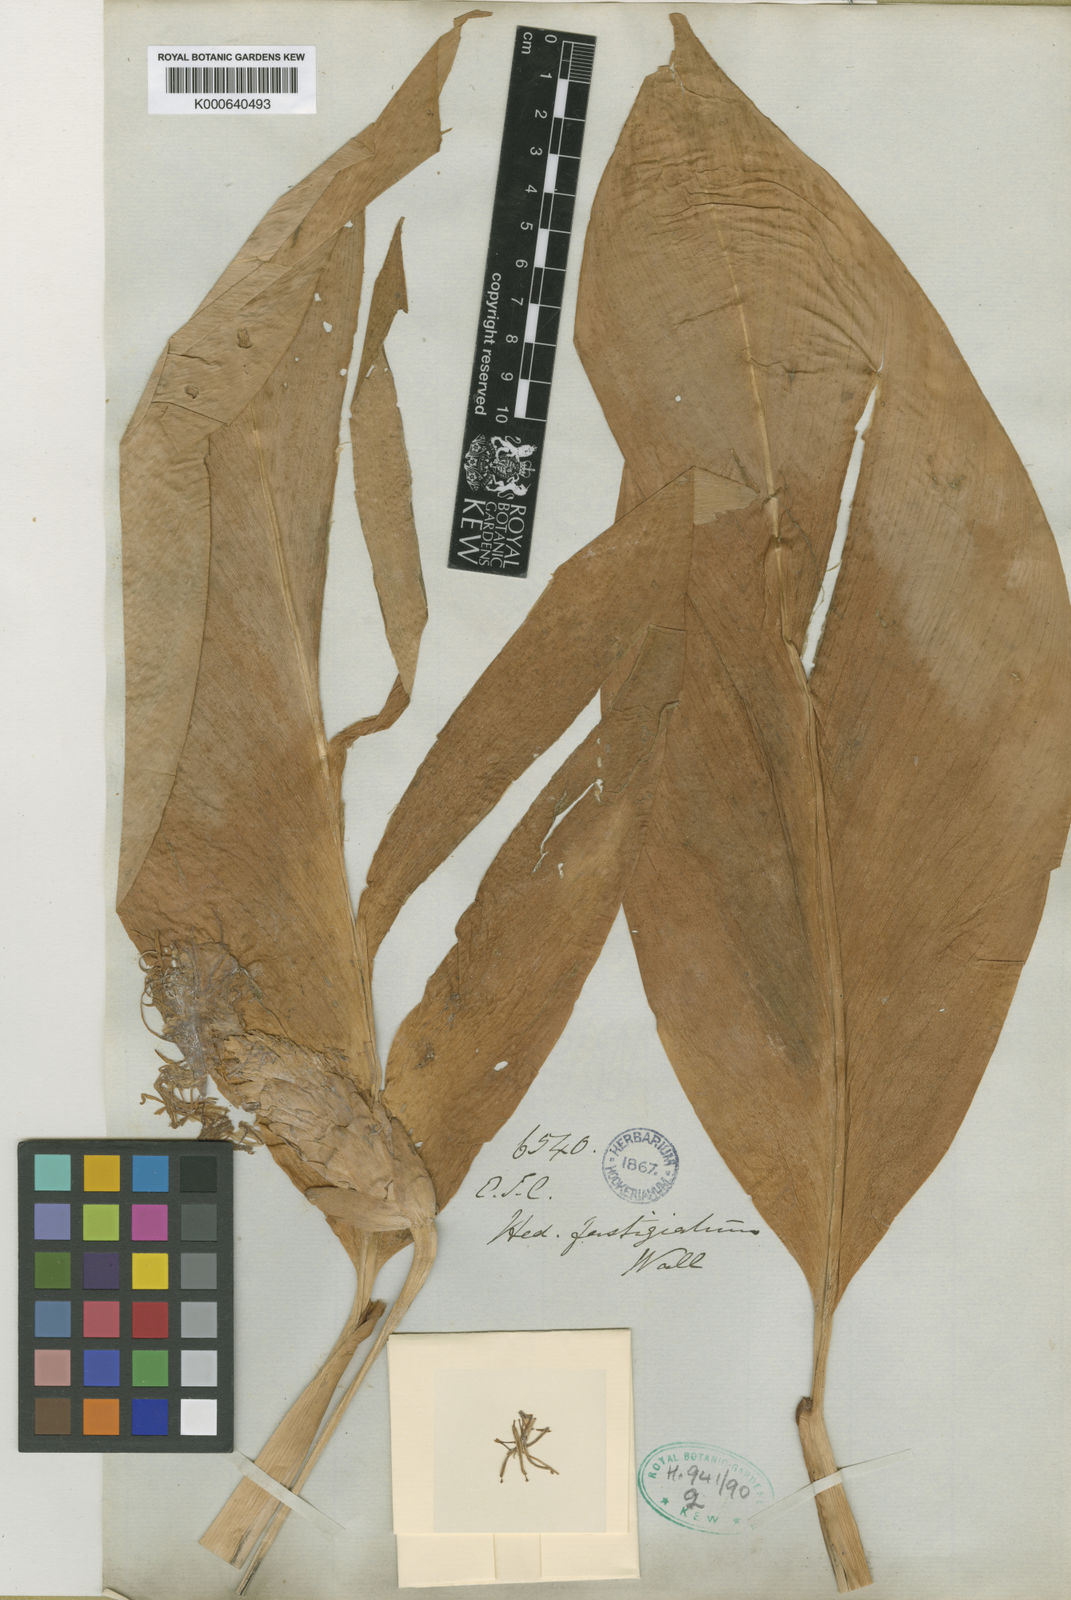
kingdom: Plantae
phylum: Tracheophyta
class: Liliopsida
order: Zingiberales
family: Zingiberaceae
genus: Hedychium
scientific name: Hedychium ellipticum
